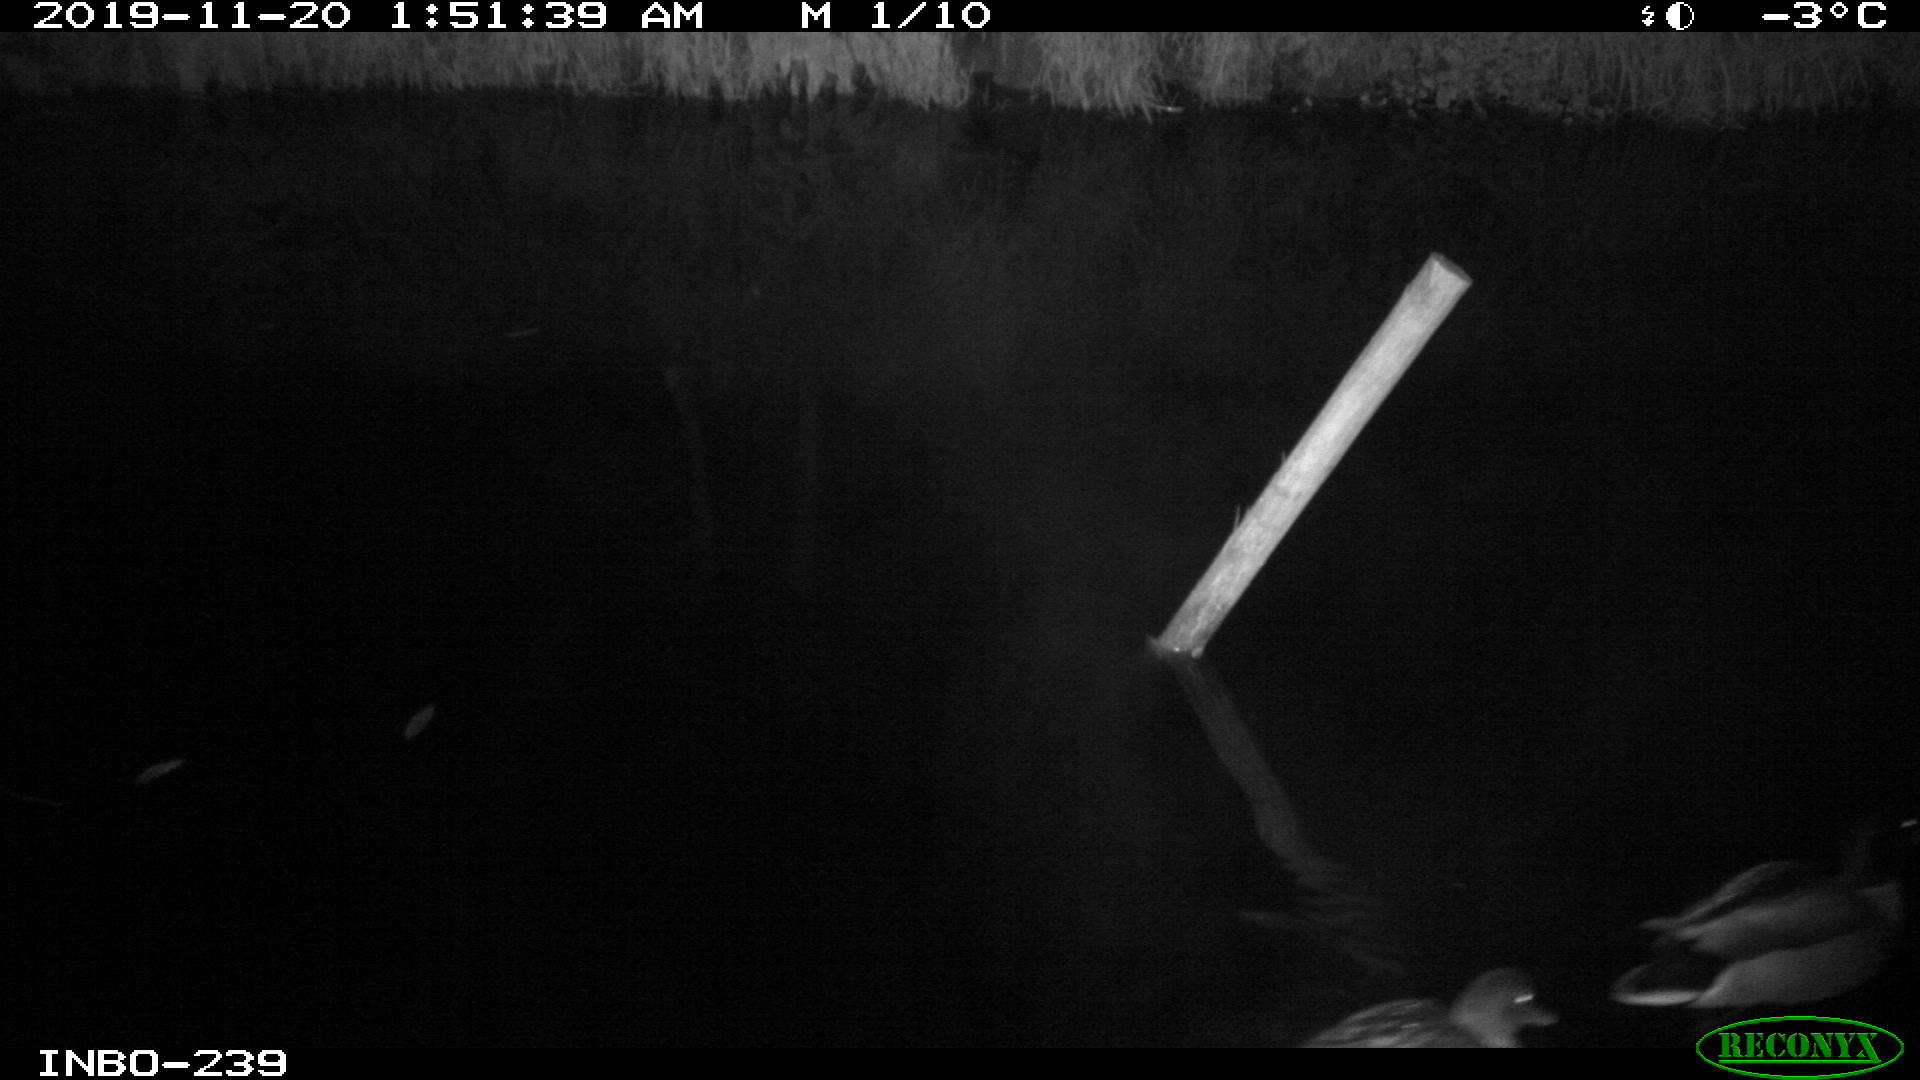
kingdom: Animalia
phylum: Chordata
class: Aves
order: Anseriformes
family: Anatidae
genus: Anas
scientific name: Anas platyrhynchos
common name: Mallard
